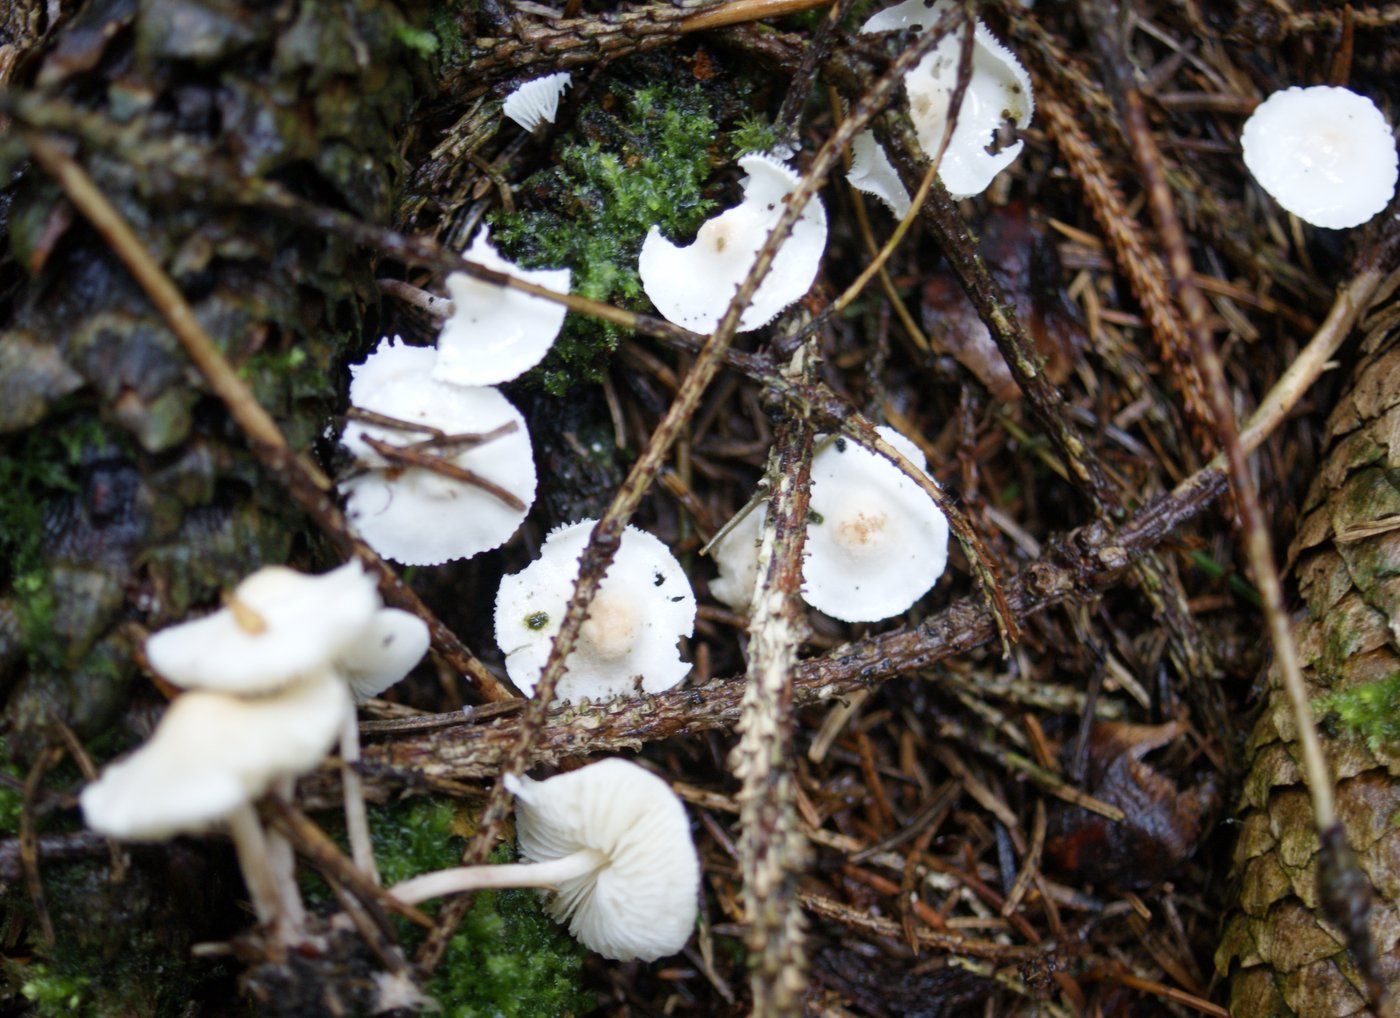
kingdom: Fungi
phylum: Basidiomycota
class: Agaricomycetes
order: Agaricales
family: Agaricaceae
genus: Cystolepiota
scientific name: Cystolepiota seminuda
